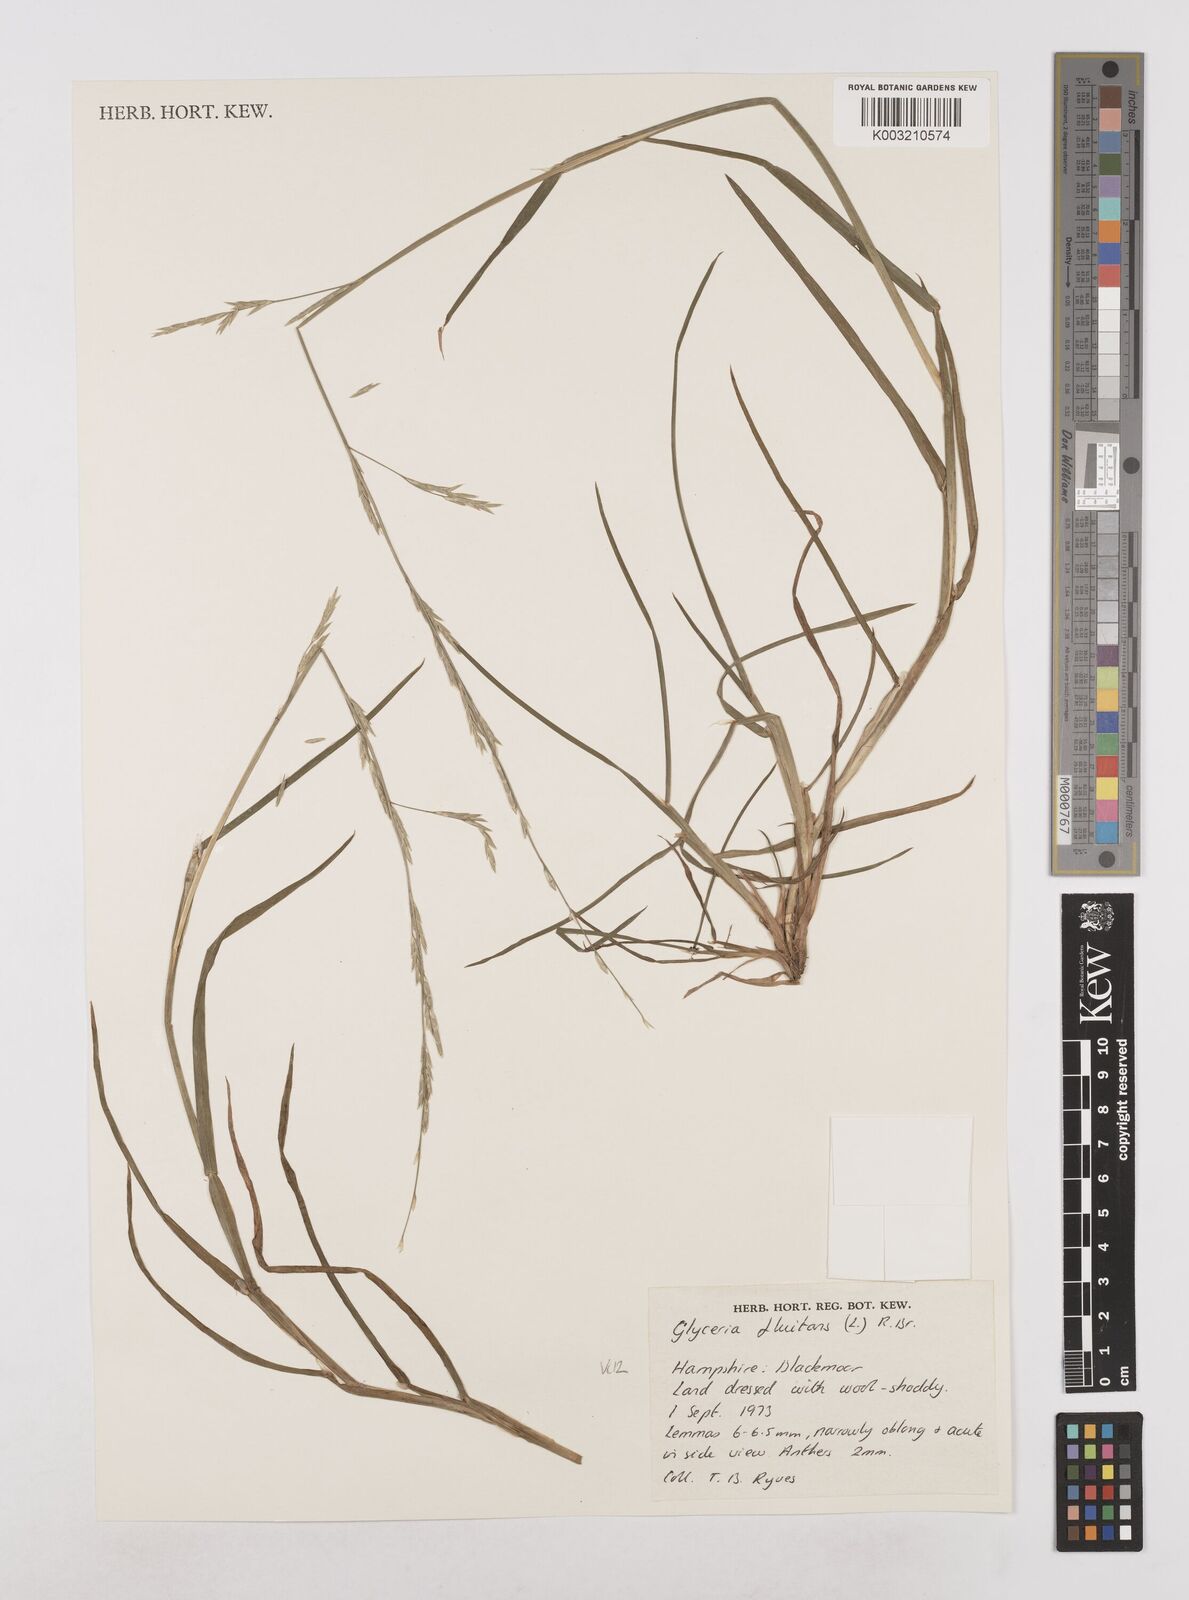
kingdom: Plantae
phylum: Tracheophyta
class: Liliopsida
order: Poales
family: Poaceae
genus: Glyceria
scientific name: Glyceria fluitans
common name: Floating sweet-grass
